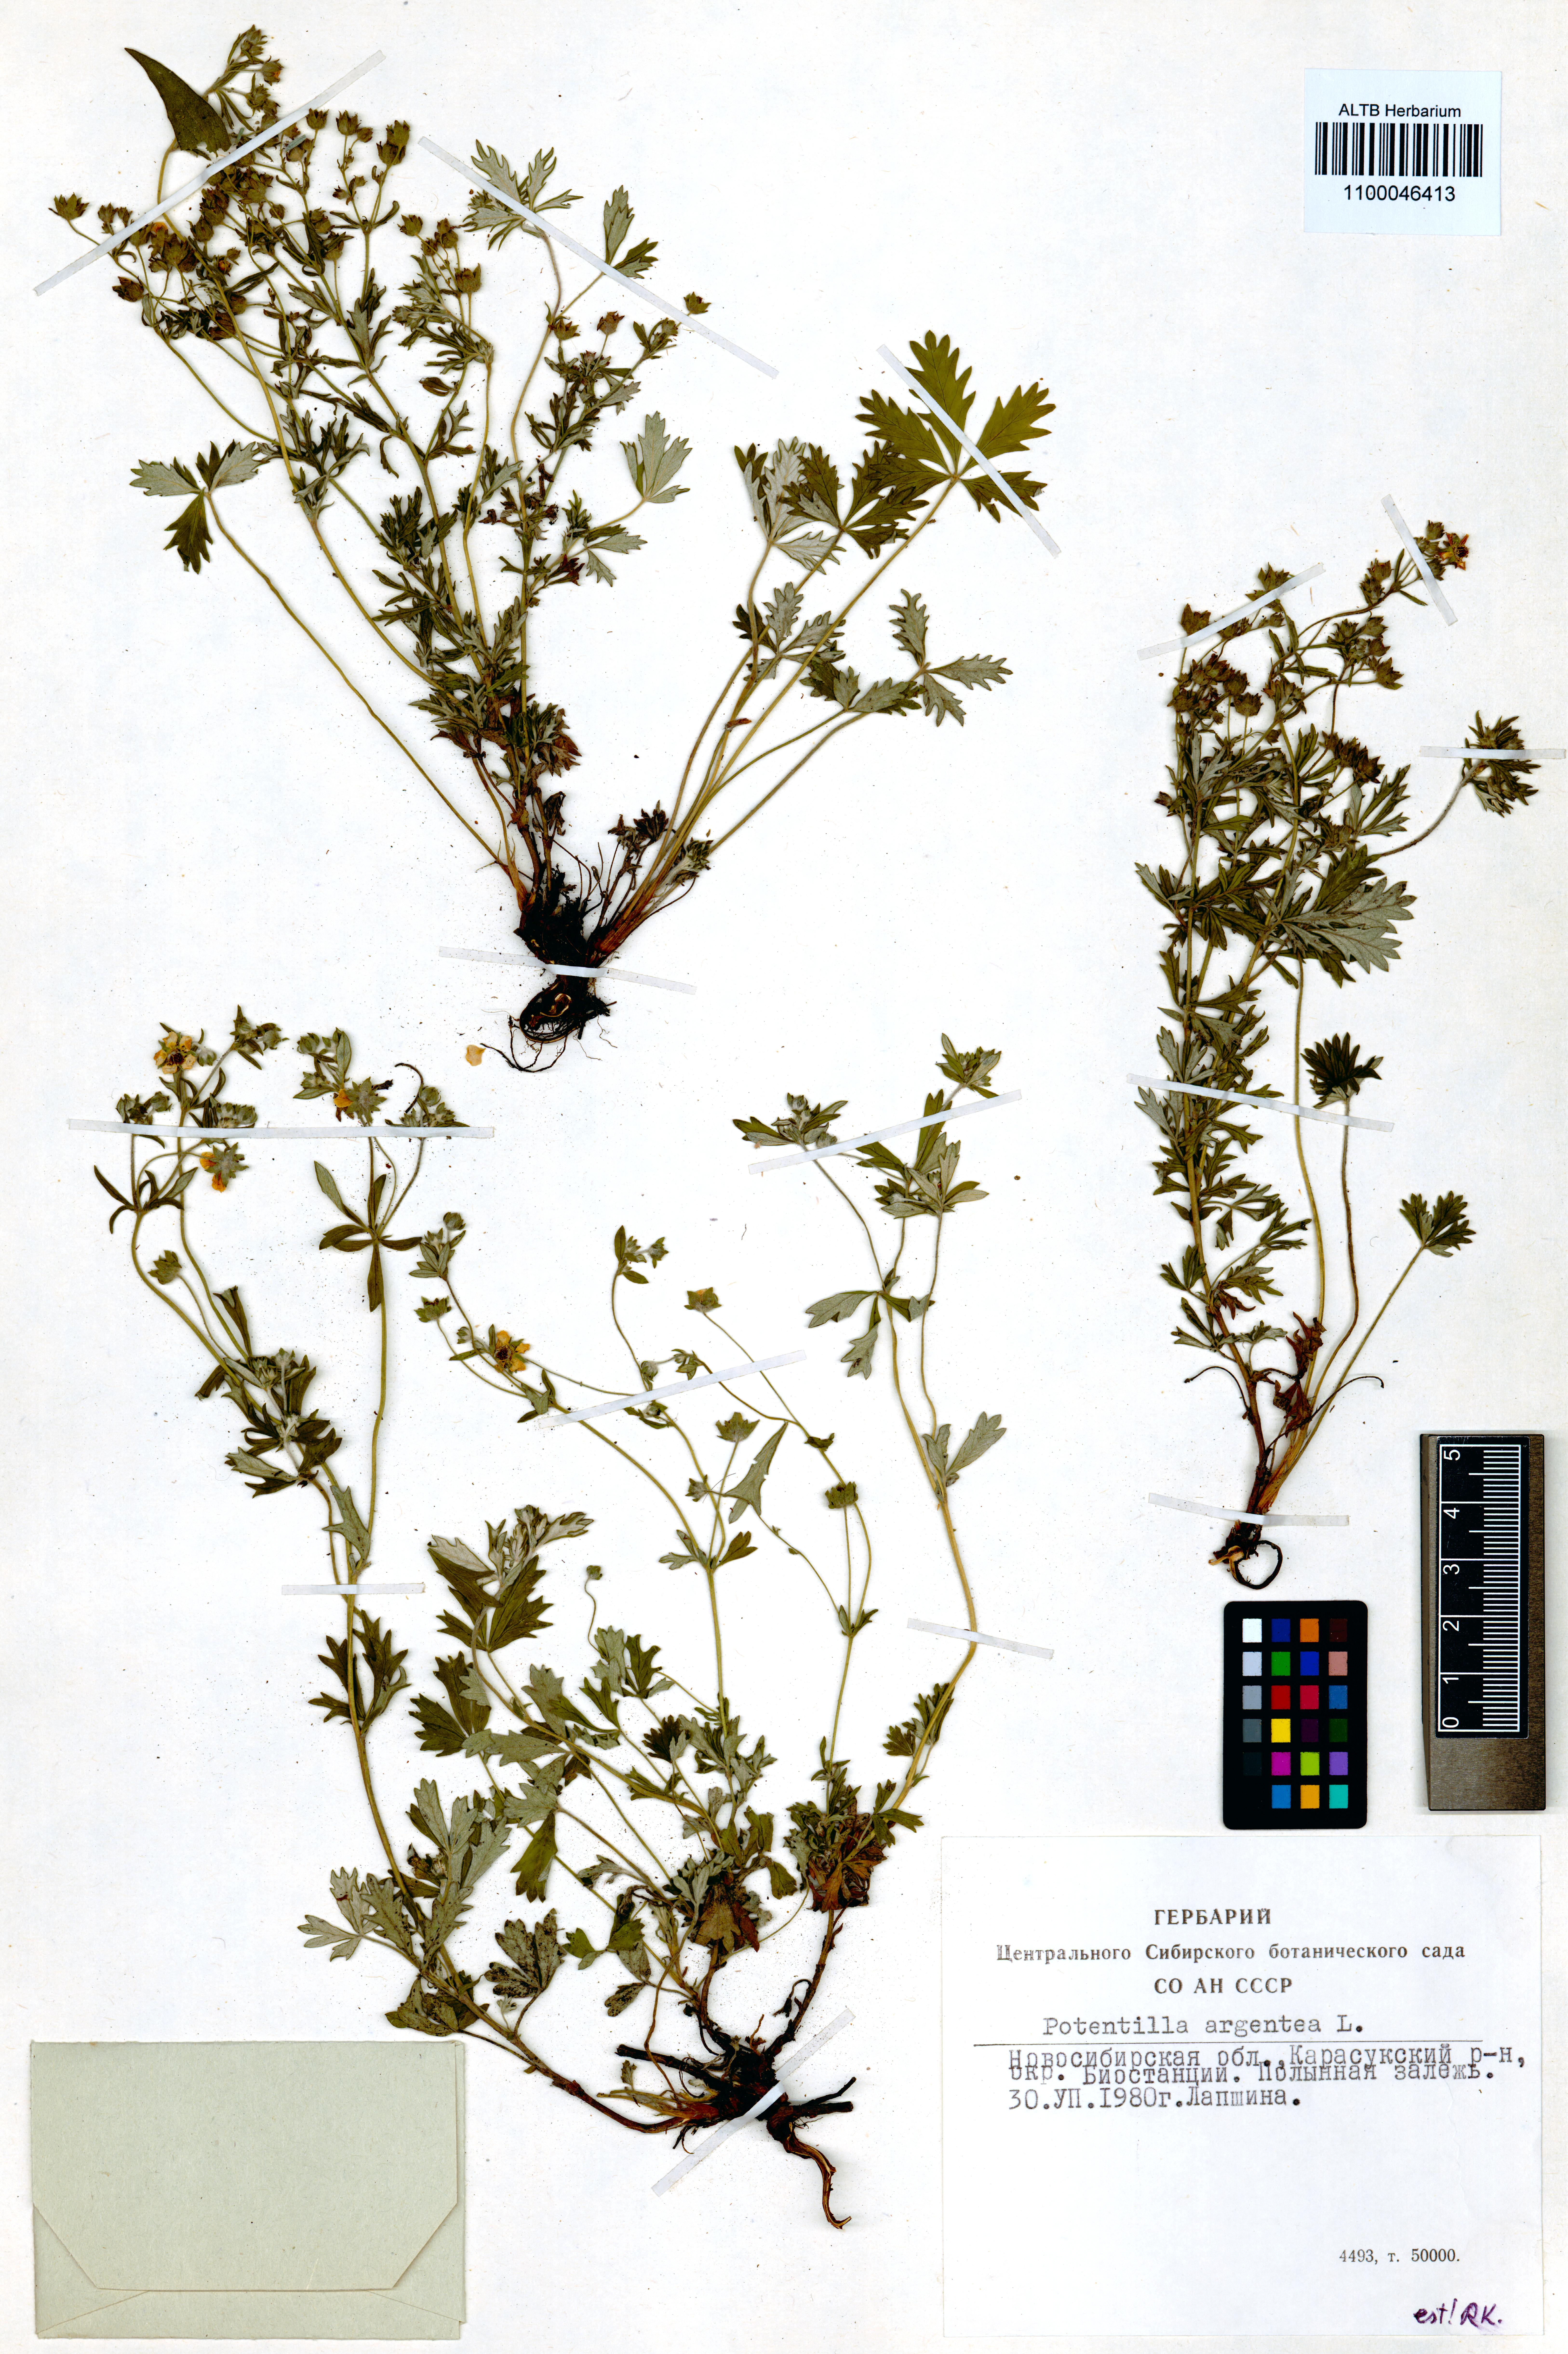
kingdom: Plantae
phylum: Tracheophyta
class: Magnoliopsida
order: Rosales
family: Rosaceae
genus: Potentilla
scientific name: Potentilla argentea
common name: Hoary cinquefoil
